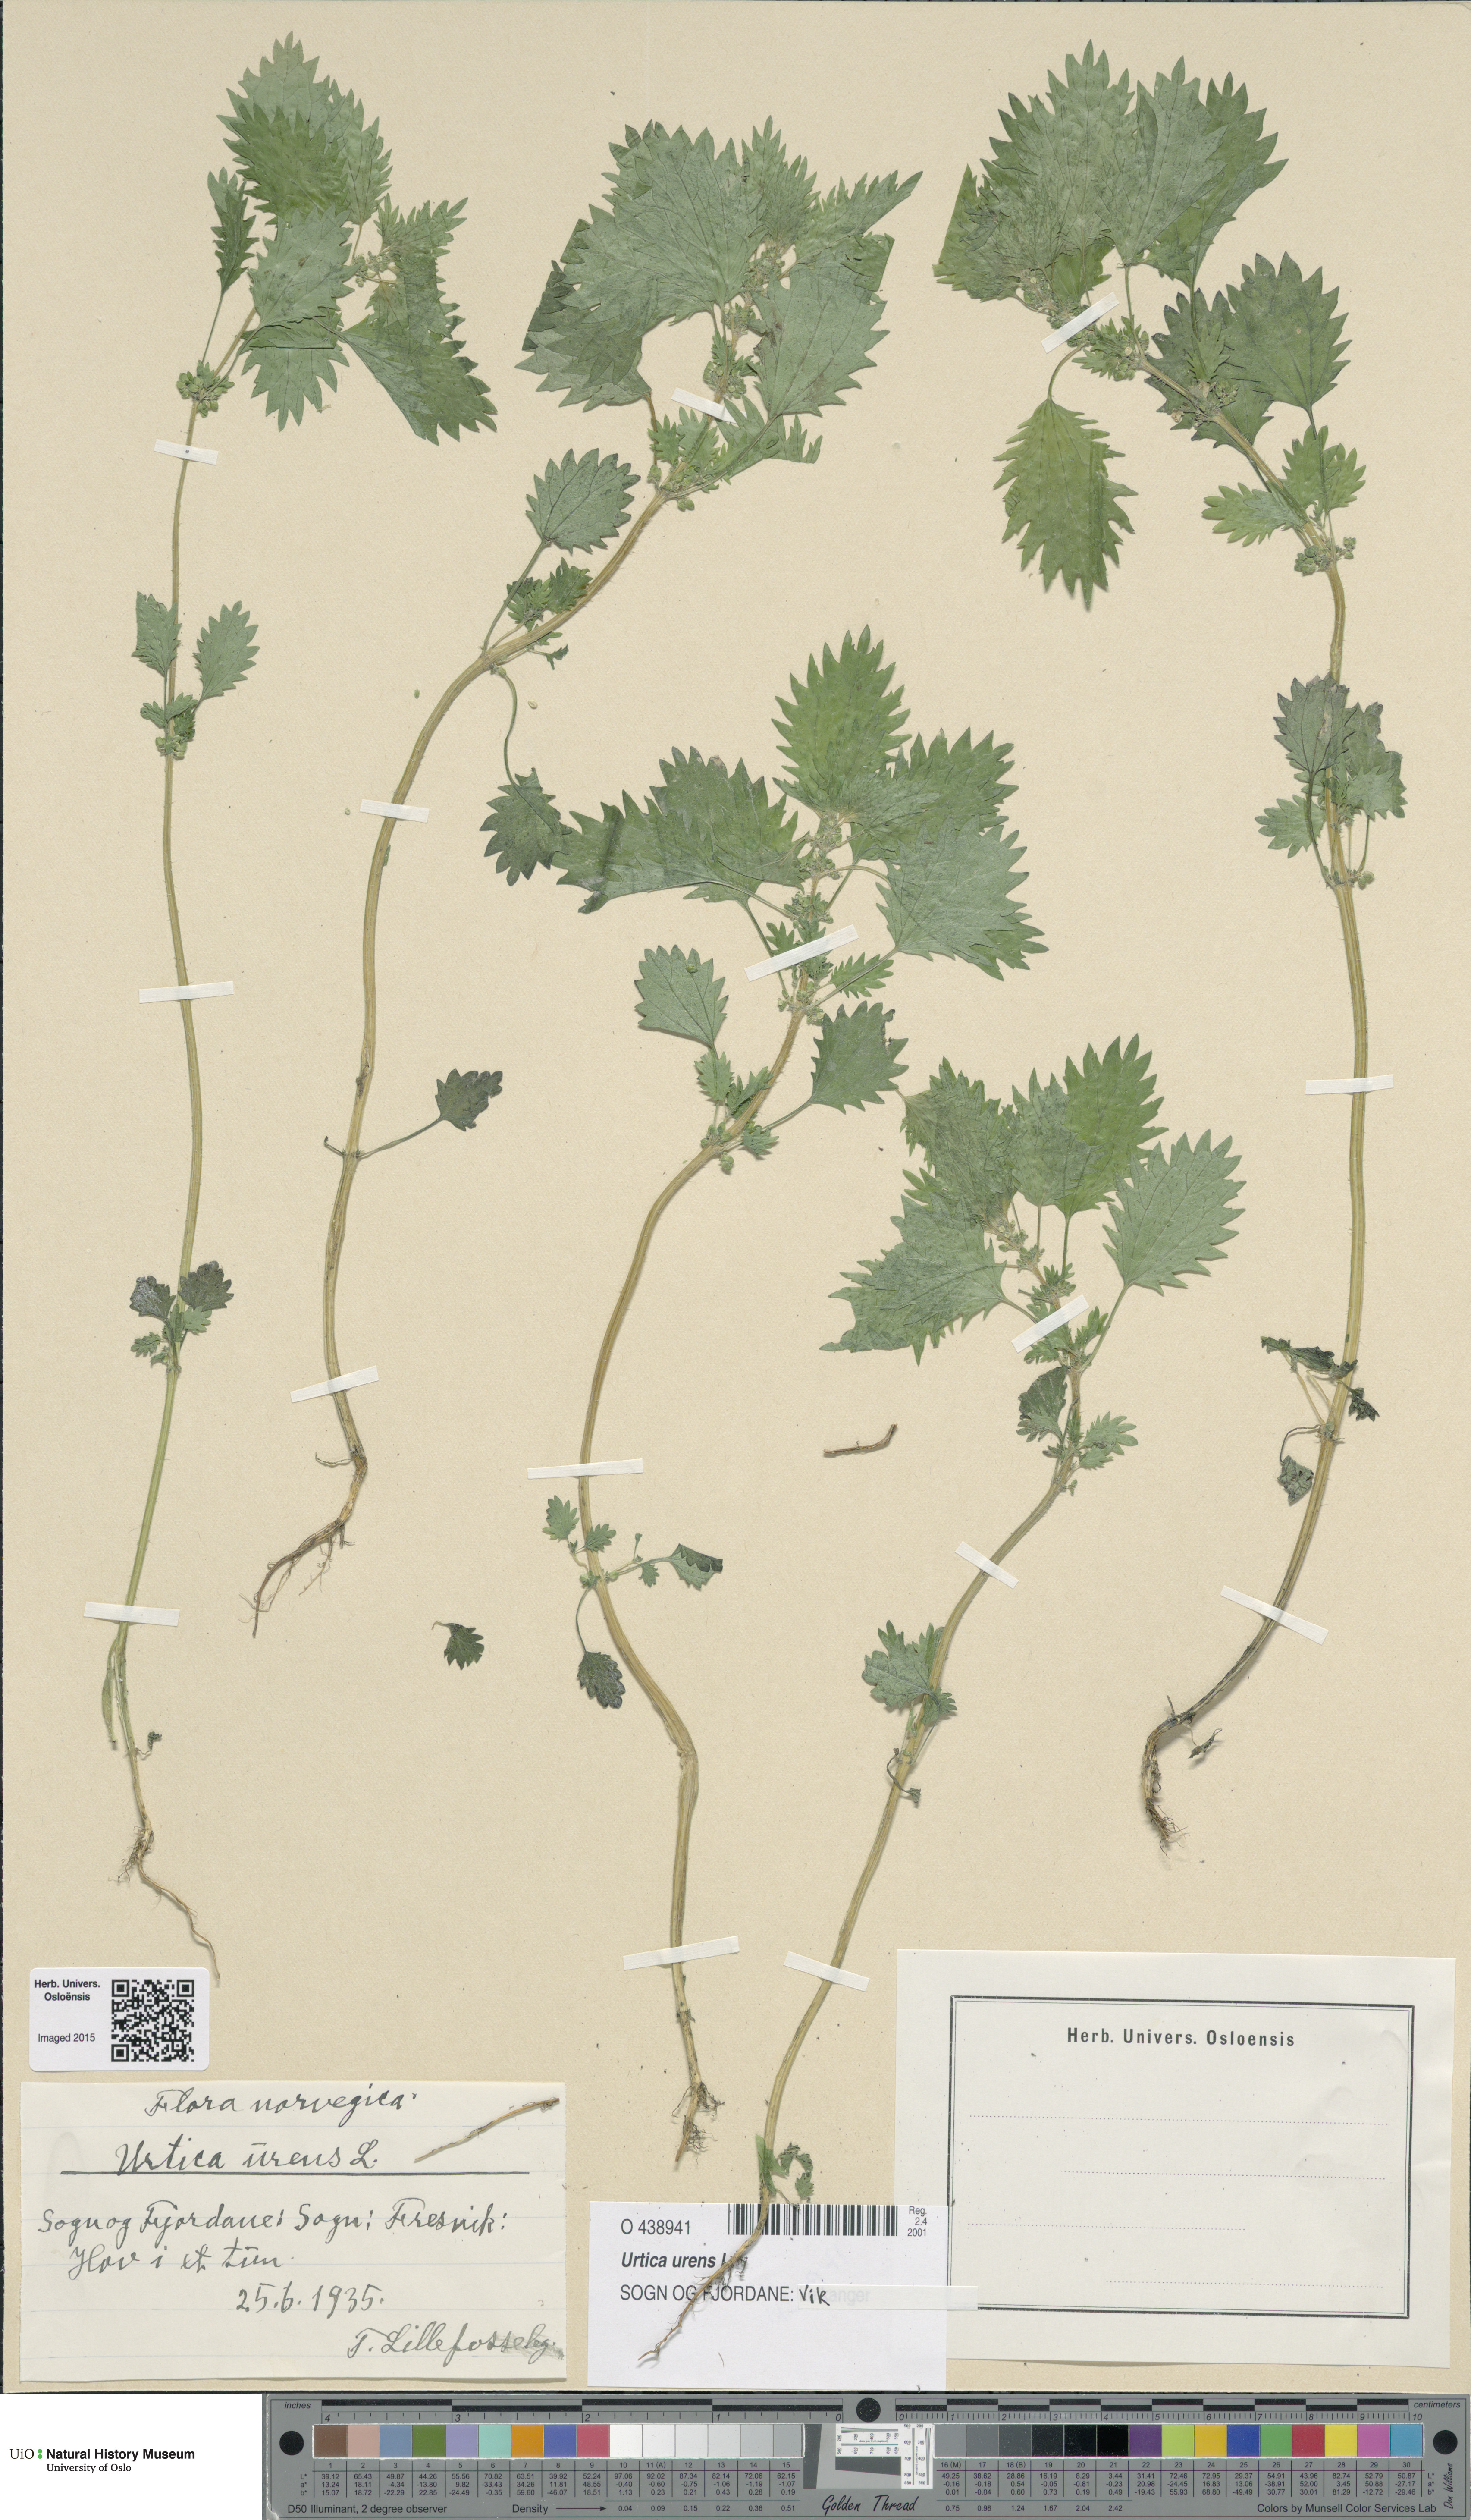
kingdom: Plantae
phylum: Tracheophyta
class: Magnoliopsida
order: Rosales
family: Urticaceae
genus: Urtica
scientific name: Urtica urens
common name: Dwarf nettle
